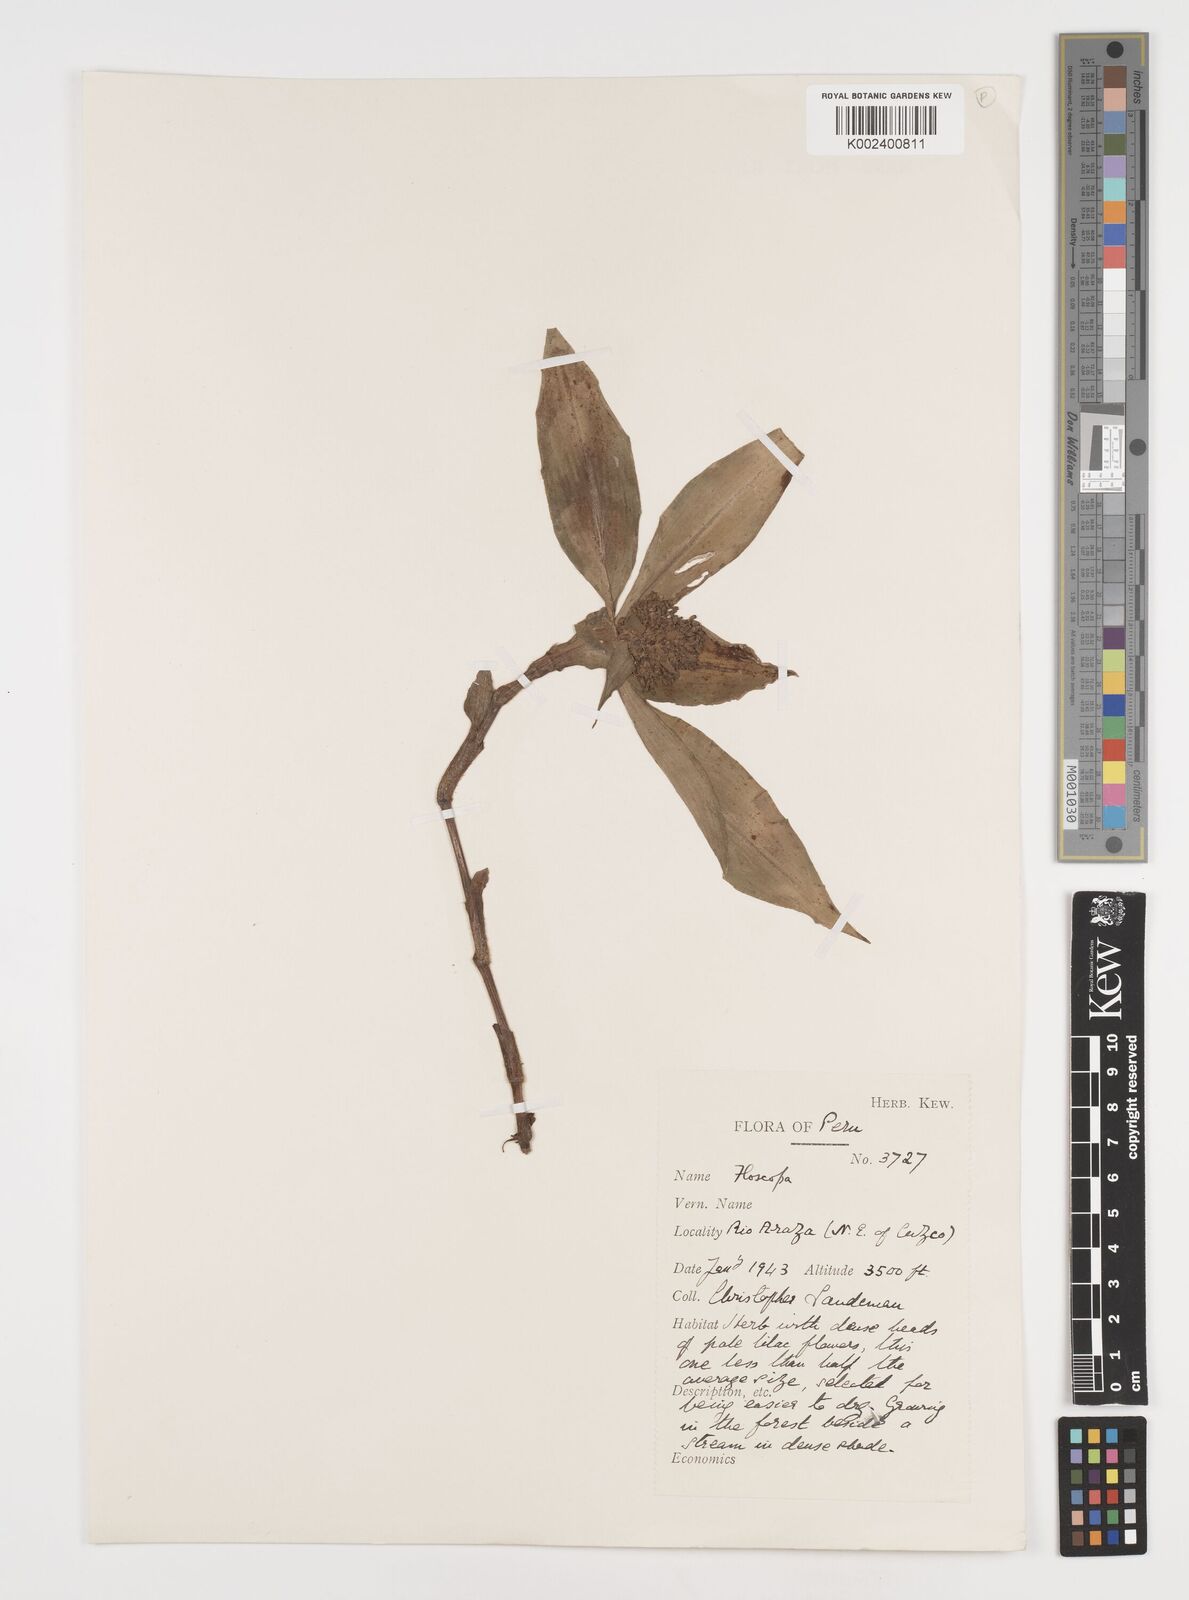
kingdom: Plantae
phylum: Tracheophyta
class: Liliopsida
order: Commelinales
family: Commelinaceae
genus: Floscopa
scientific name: Floscopa
